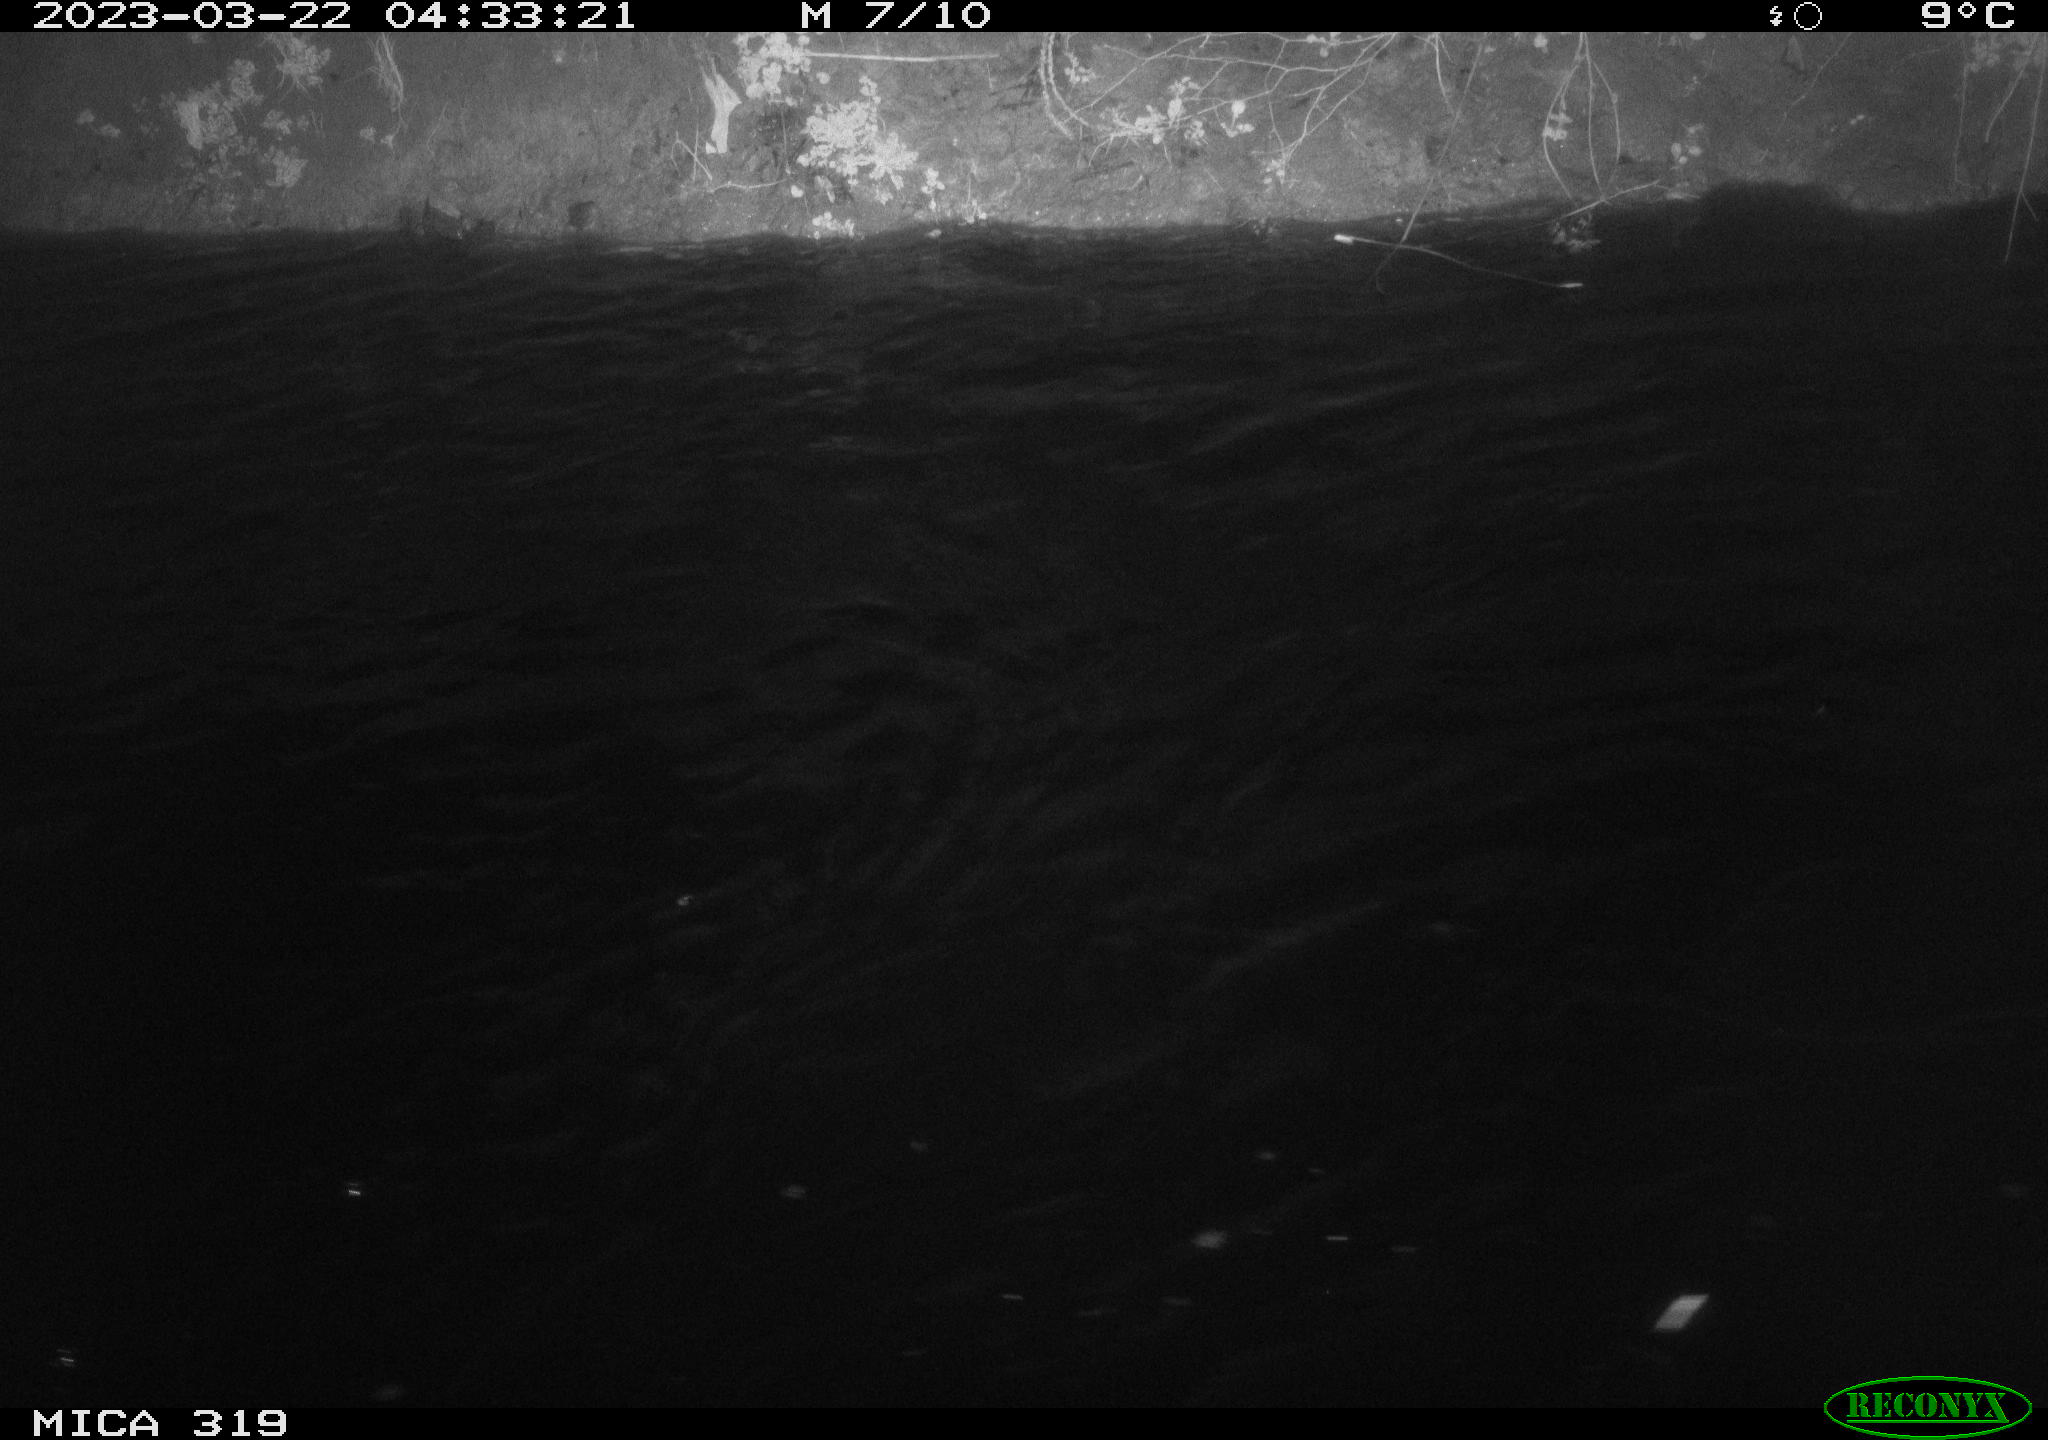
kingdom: Animalia
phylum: Chordata
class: Aves
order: Anseriformes
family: Anatidae
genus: Anas
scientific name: Anas
